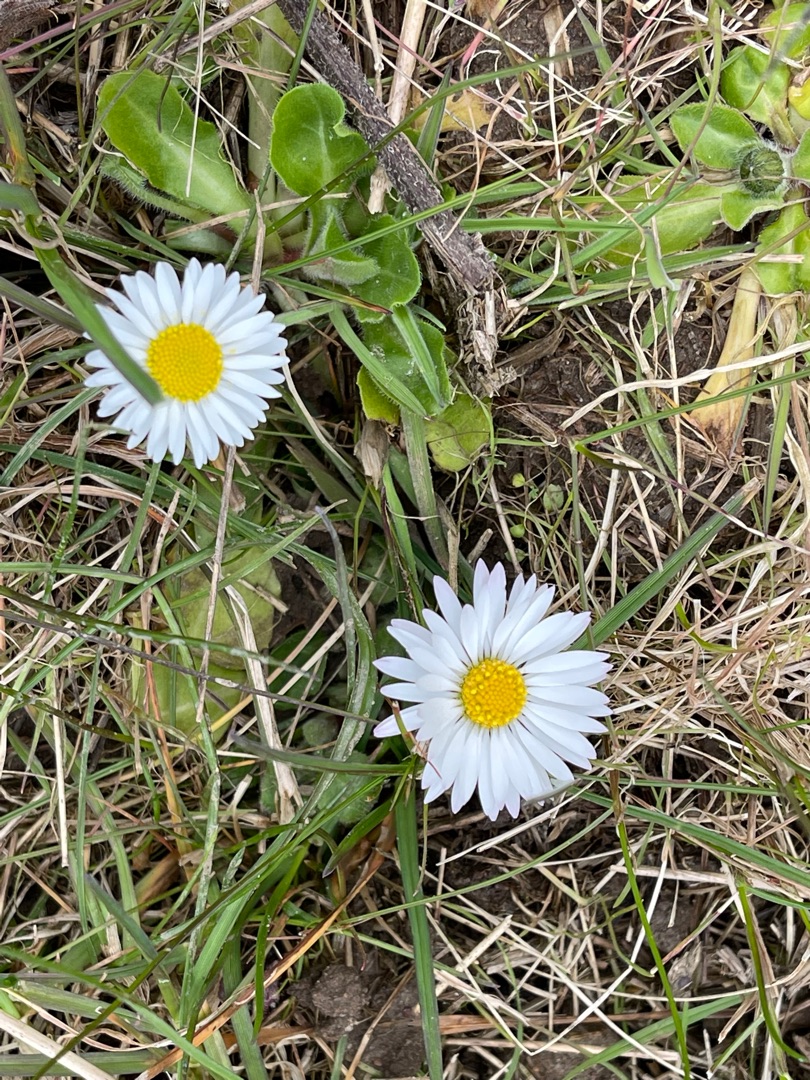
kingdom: Plantae
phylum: Tracheophyta
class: Magnoliopsida
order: Asterales
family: Asteraceae
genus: Bellis
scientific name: Bellis perennis
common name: Tusindfryd
